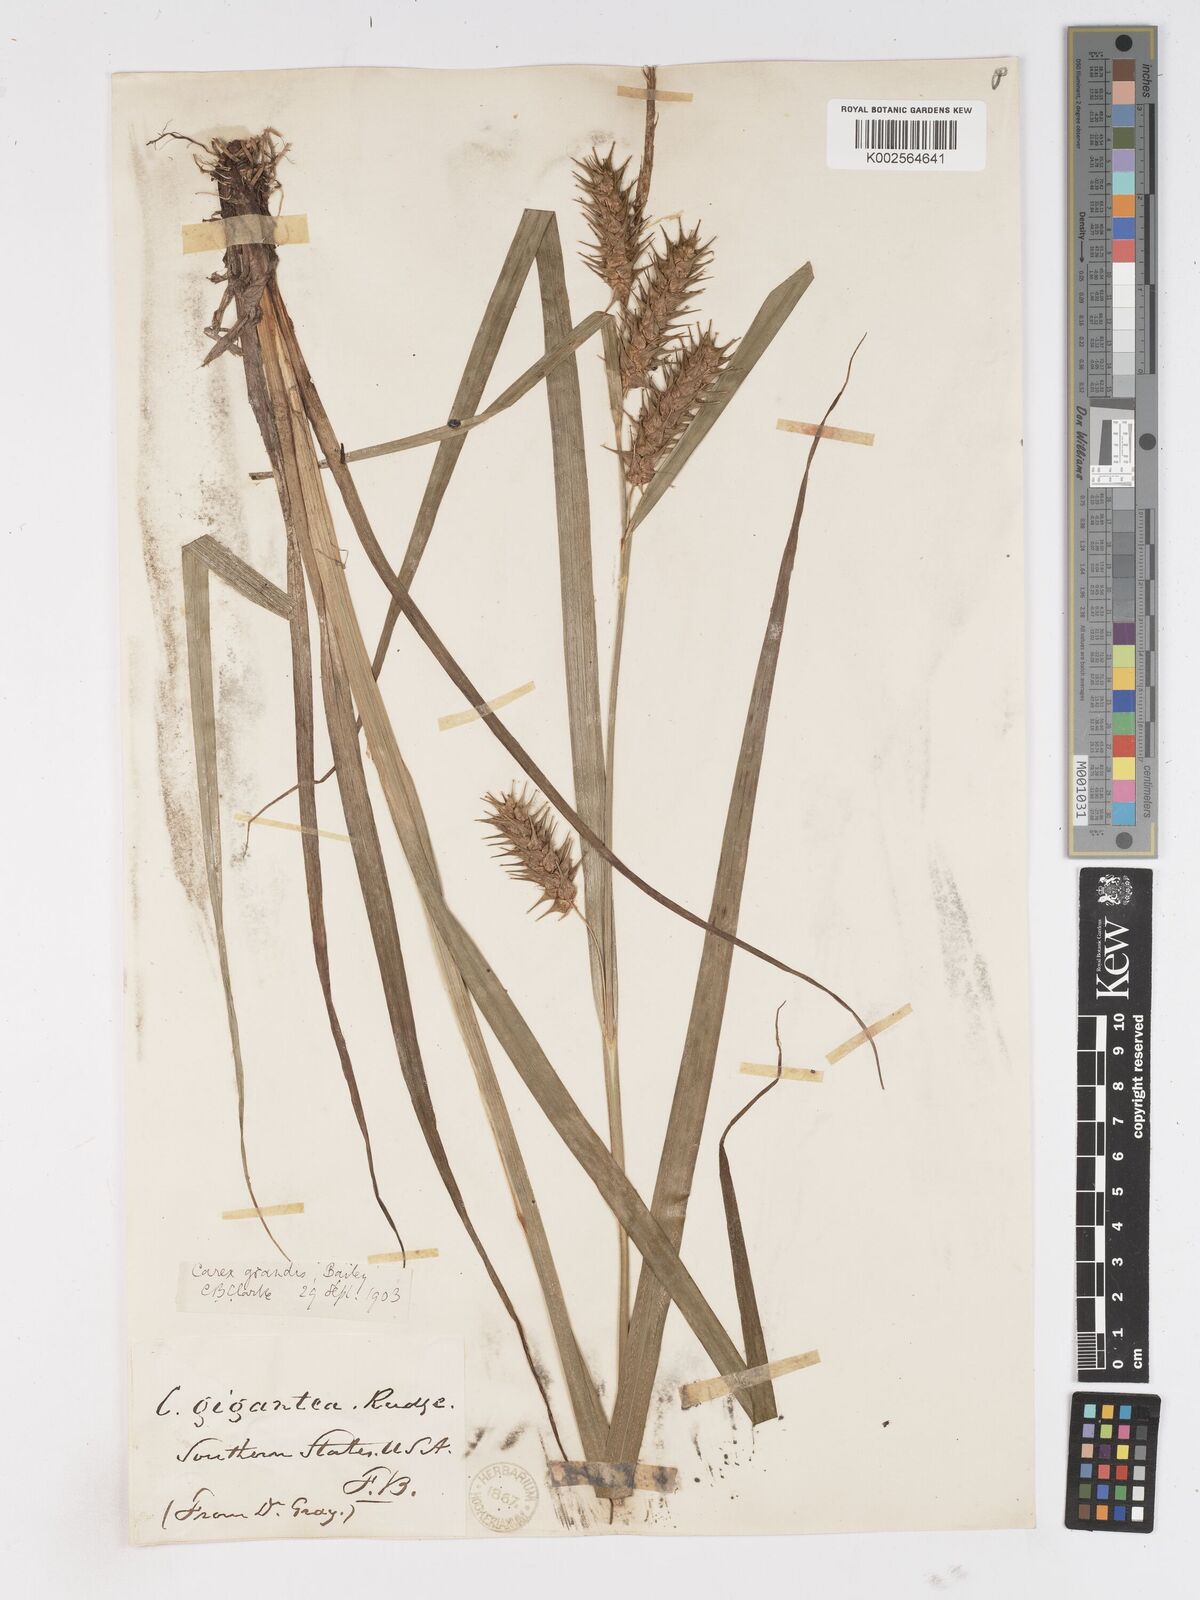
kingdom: Plantae
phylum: Tracheophyta
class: Liliopsida
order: Poales
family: Cyperaceae
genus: Carex
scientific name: Carex gigantea
